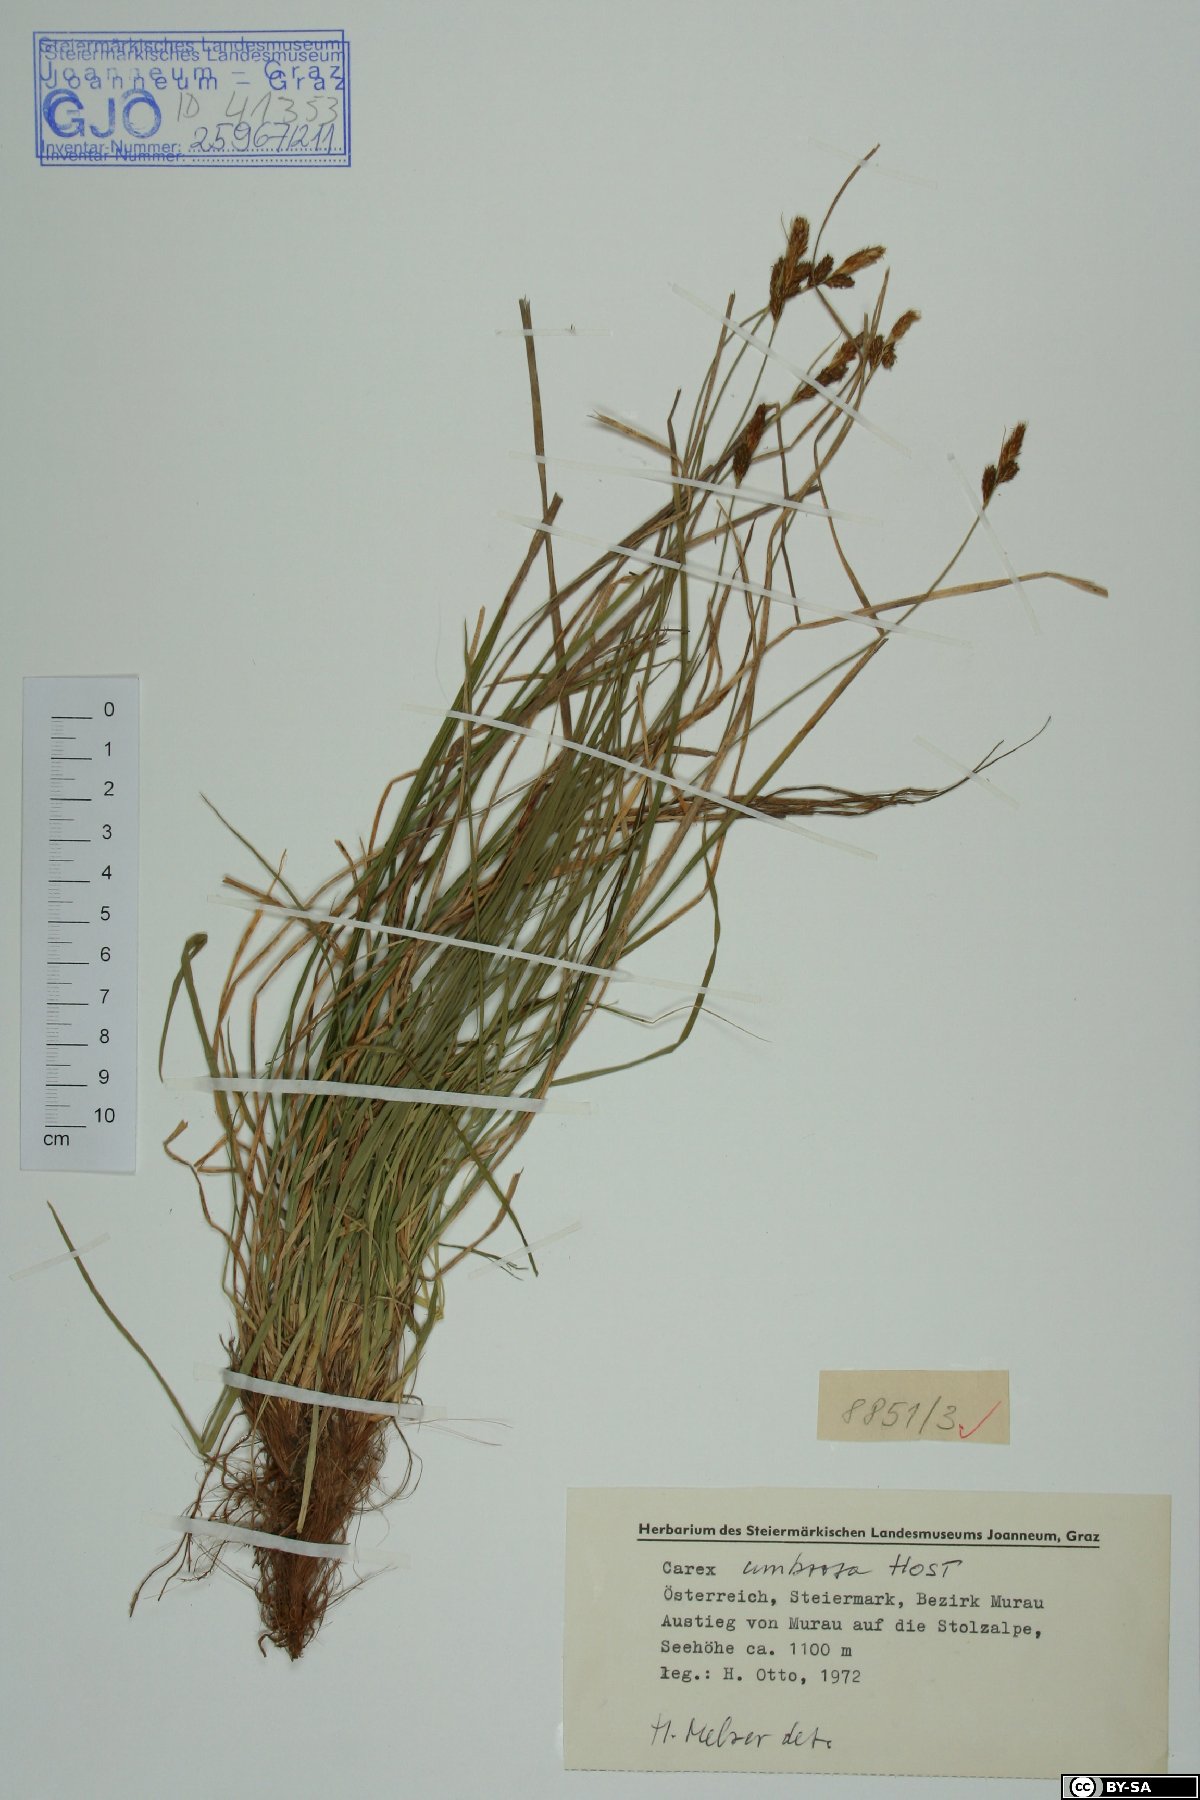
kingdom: Plantae
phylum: Tracheophyta
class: Liliopsida
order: Poales
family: Cyperaceae
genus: Carex
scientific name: Carex umbrosa
